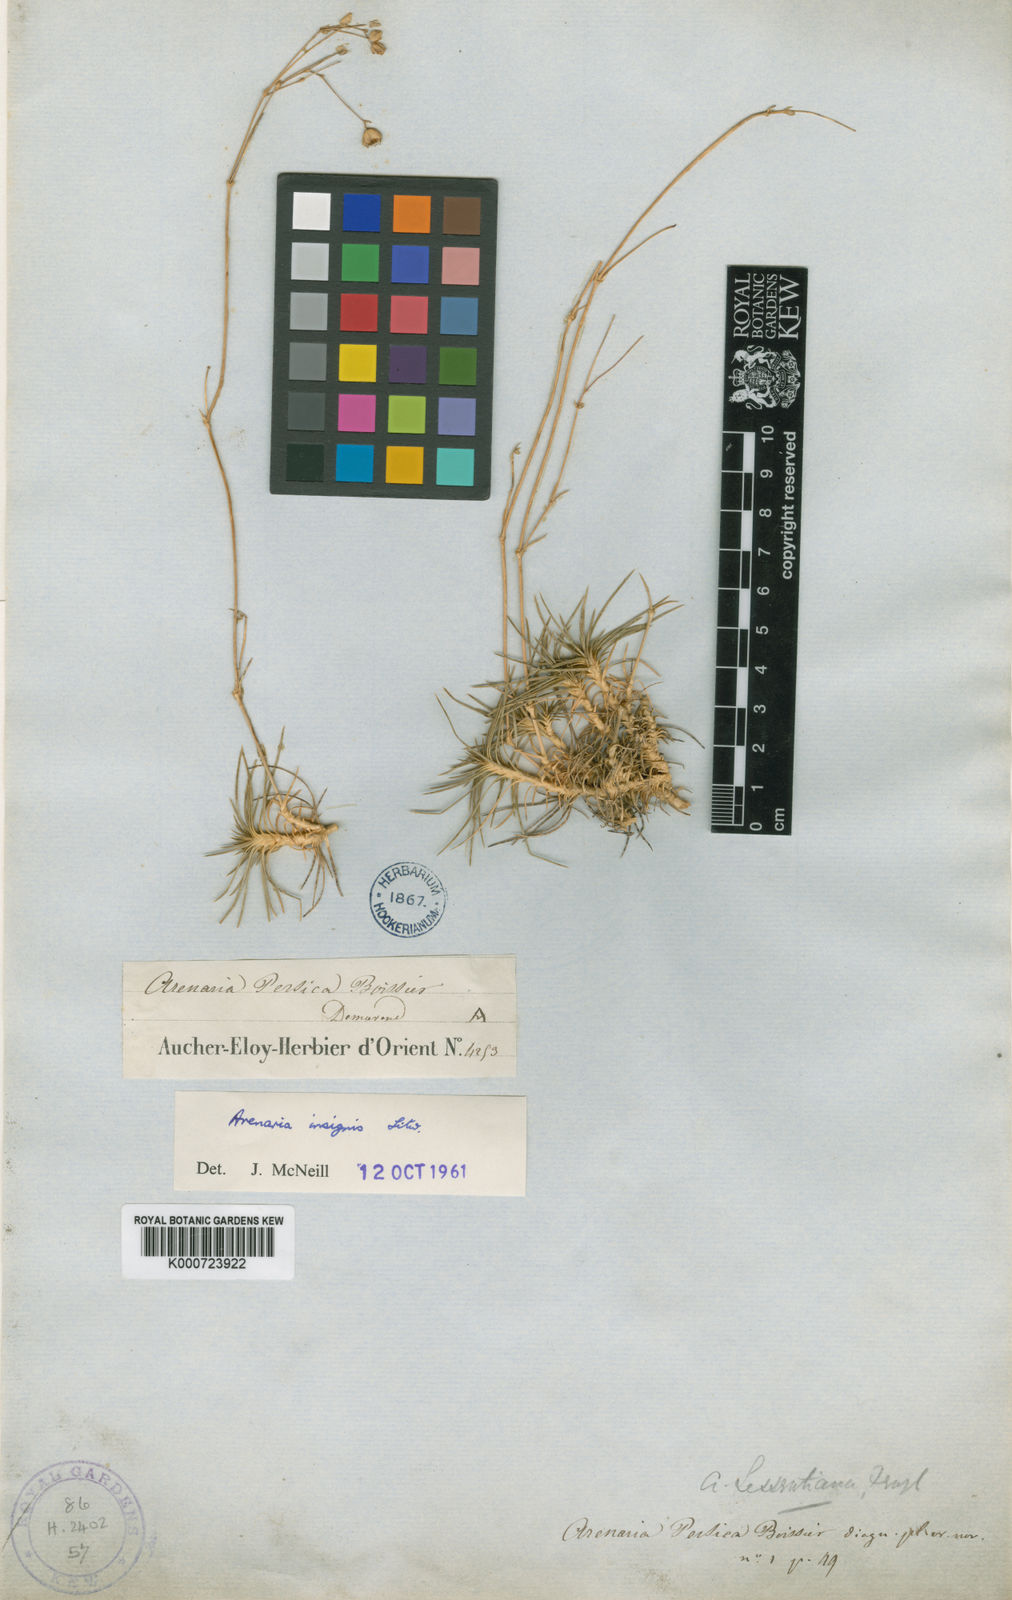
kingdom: Plantae
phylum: Tracheophyta
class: Magnoliopsida
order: Caryophyllales
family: Caryophyllaceae
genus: Eremogone
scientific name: Eremogone persica
